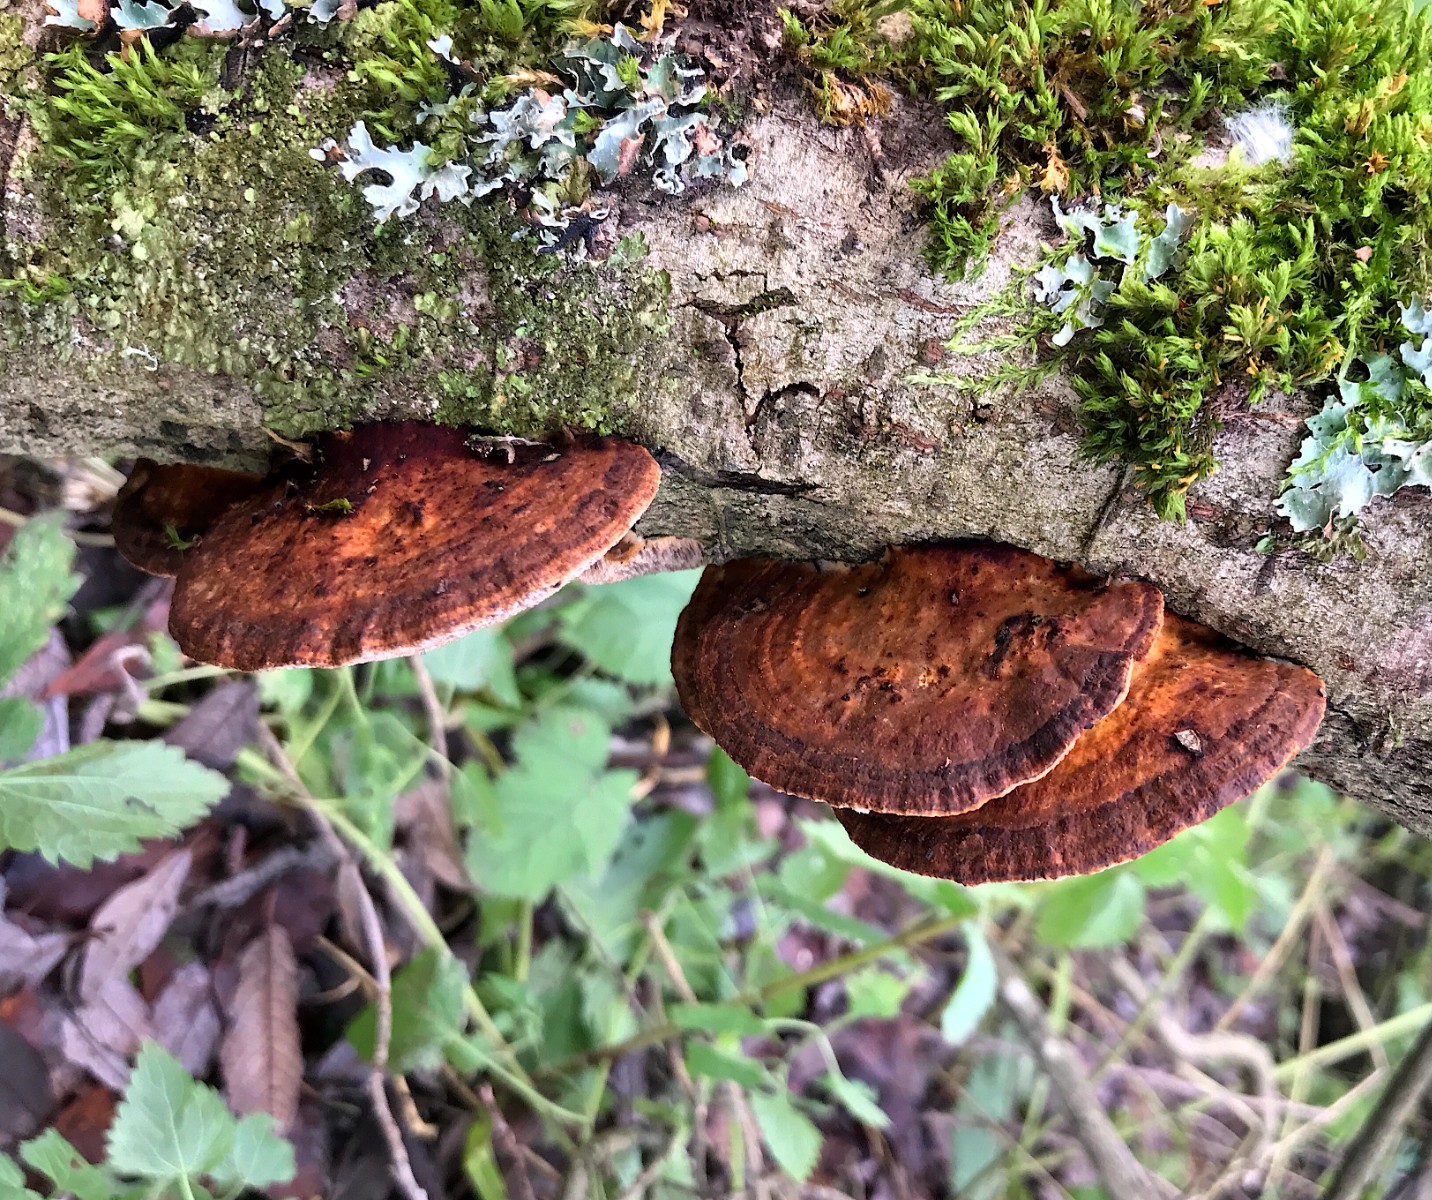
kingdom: Fungi
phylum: Basidiomycota
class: Agaricomycetes
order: Polyporales
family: Polyporaceae
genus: Daedaleopsis
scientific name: Daedaleopsis confragosa
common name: rødmende læderporesvamp
